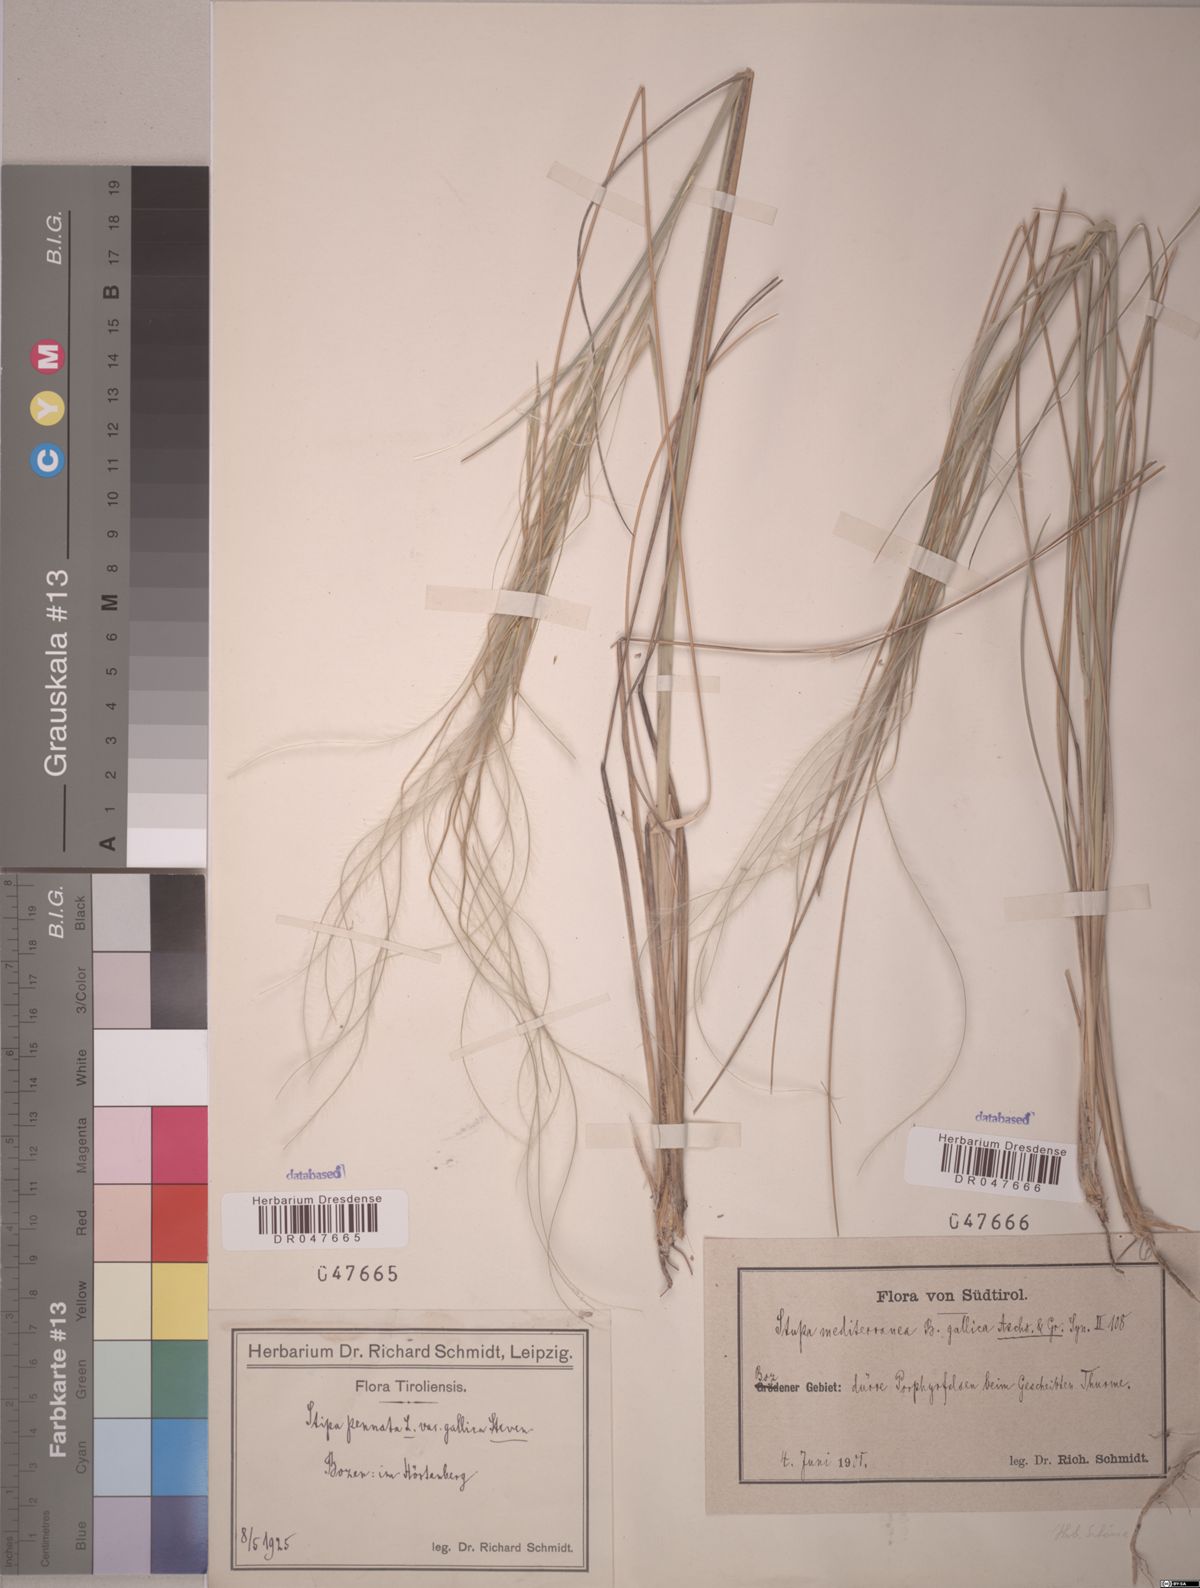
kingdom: Plantae
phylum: Tracheophyta
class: Liliopsida
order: Poales
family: Poaceae
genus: Stipa
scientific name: Stipa pennata
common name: European feather grass
